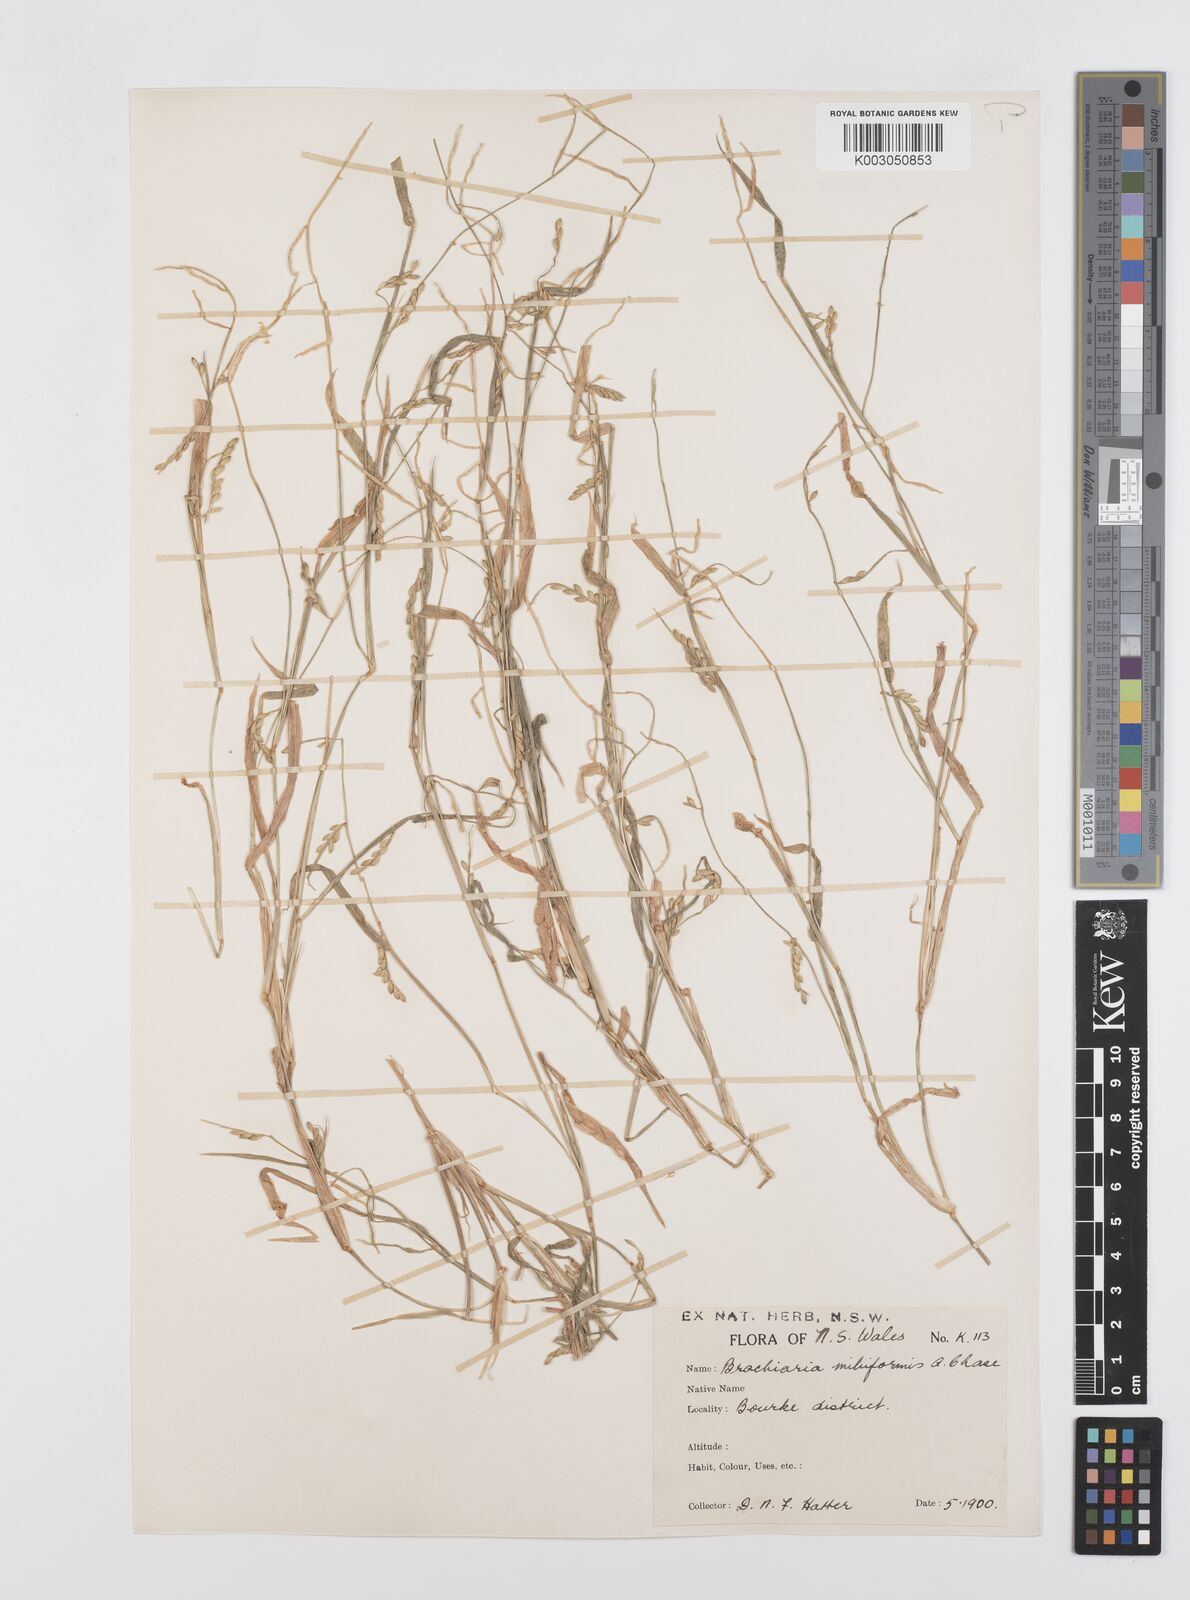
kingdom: Plantae
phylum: Tracheophyta
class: Liliopsida
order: Poales
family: Poaceae
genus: Urochloa
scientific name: Urochloa subquadripara
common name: Armgrass millet
